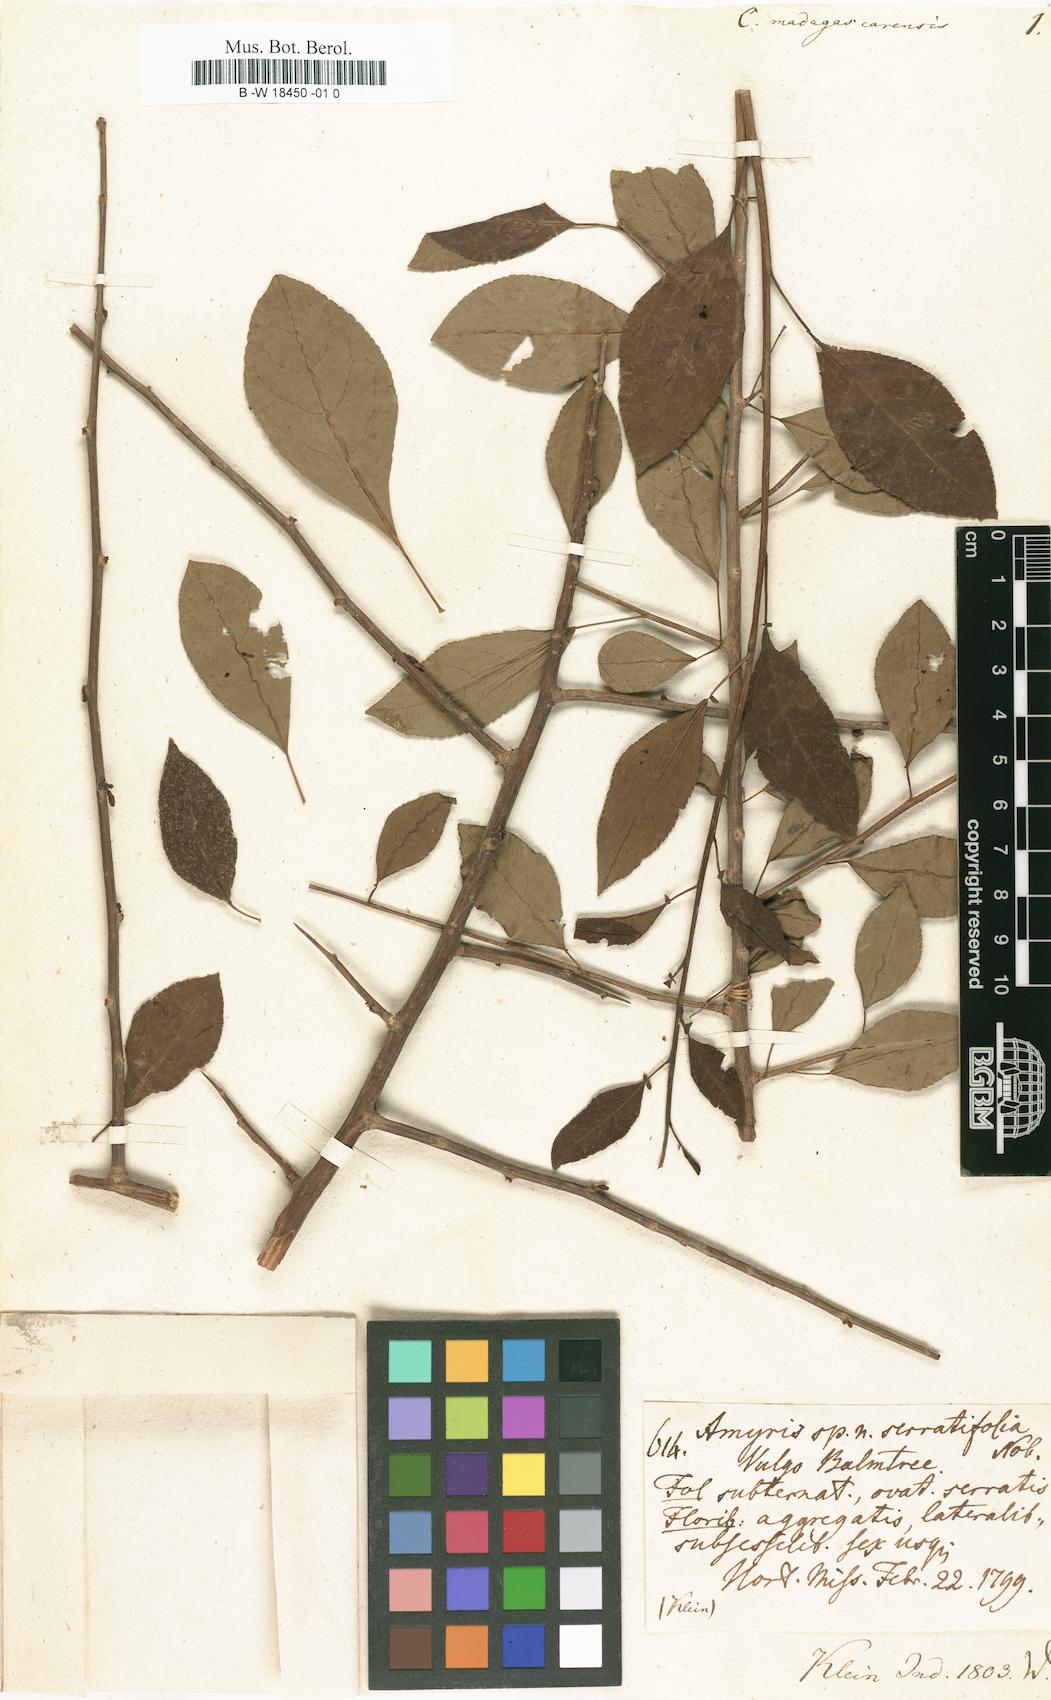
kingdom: Plantae
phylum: Tracheophyta
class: Magnoliopsida
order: Sapindales
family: Burseraceae
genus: Commiphora
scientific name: Commiphora madagascariensis
